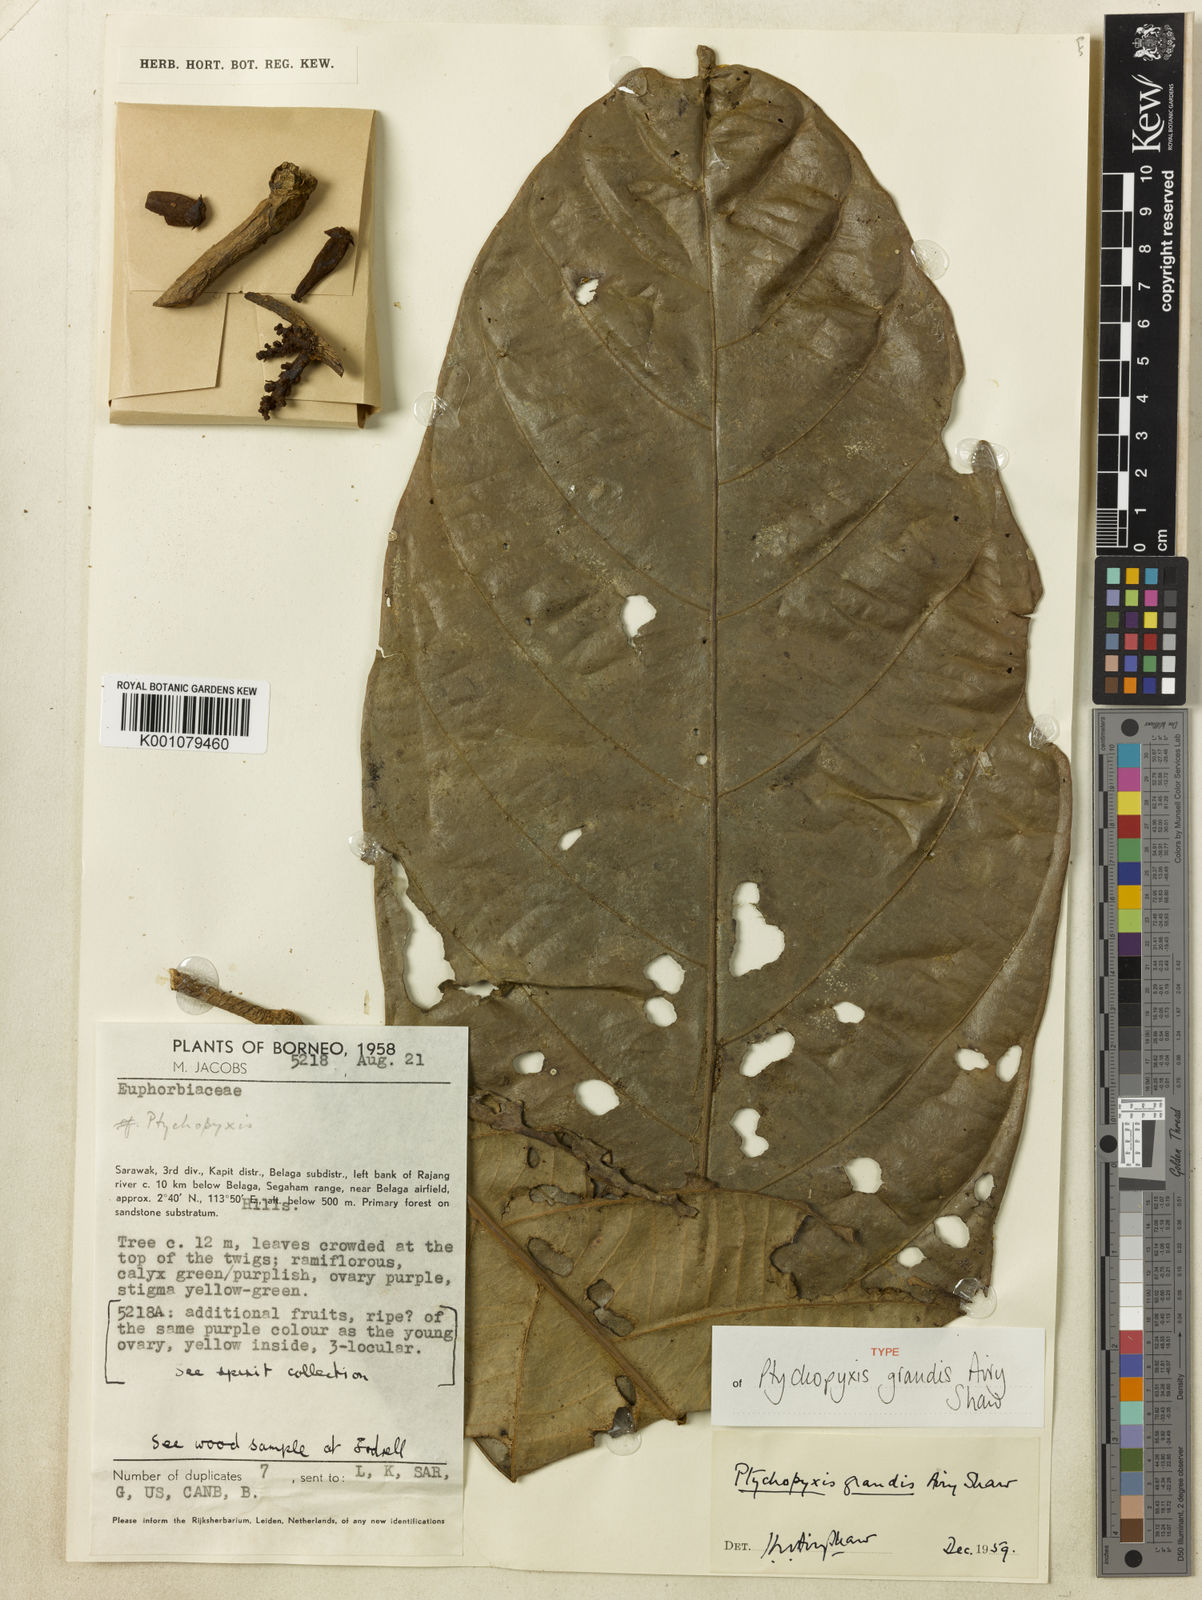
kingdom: Plantae
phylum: Tracheophyta
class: Magnoliopsida
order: Malpighiales
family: Euphorbiaceae
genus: Ptychopyxis
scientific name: Ptychopyxis grandis
